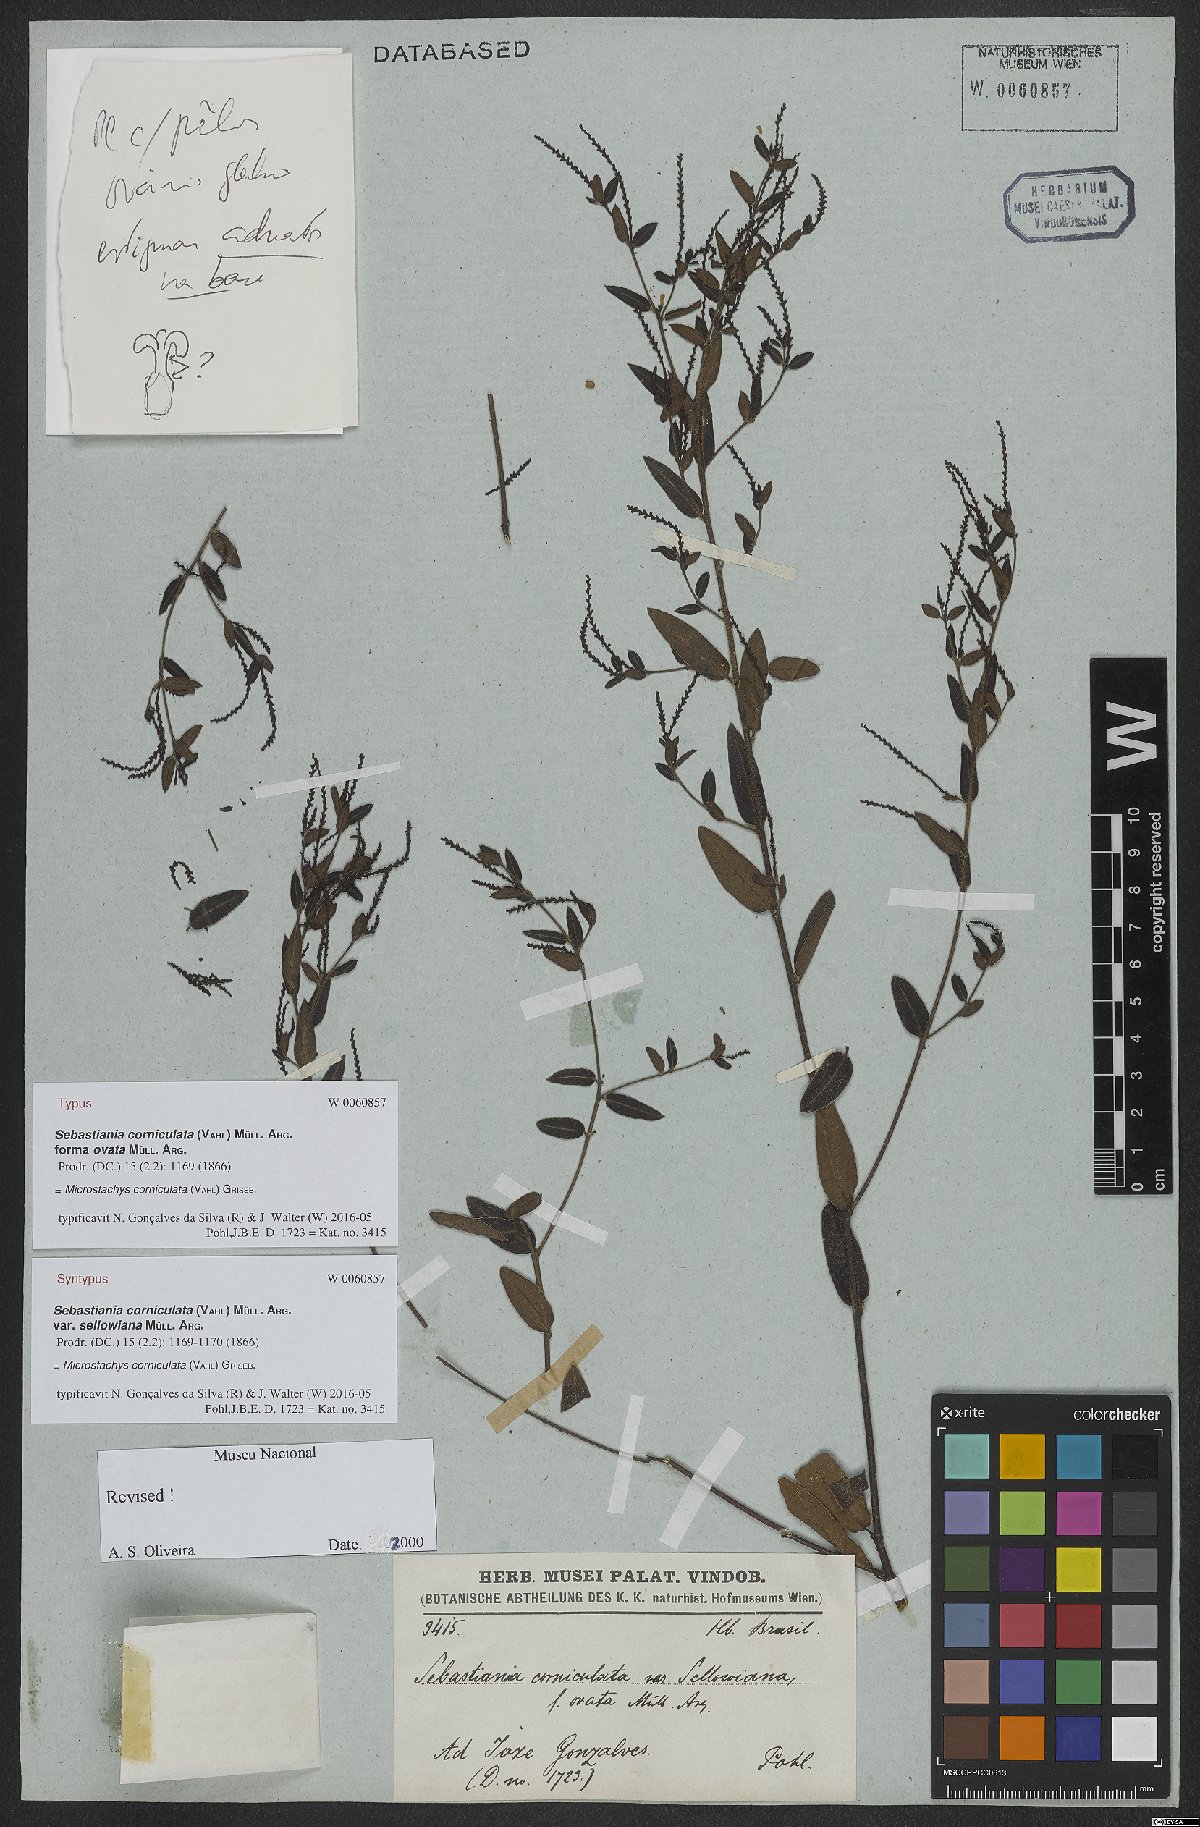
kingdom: Plantae
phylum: Tracheophyta
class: Magnoliopsida
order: Malpighiales
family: Euphorbiaceae
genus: Microstachys
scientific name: Microstachys corniculata
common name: Hato tejas
